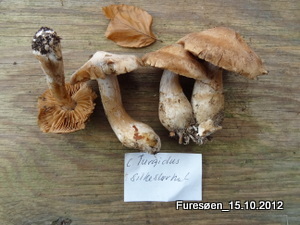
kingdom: Fungi
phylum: Basidiomycota
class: Agaricomycetes
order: Agaricales
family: Cortinariaceae
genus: Cortinarius
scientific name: Cortinarius urbicus
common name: sølv-slørhat
